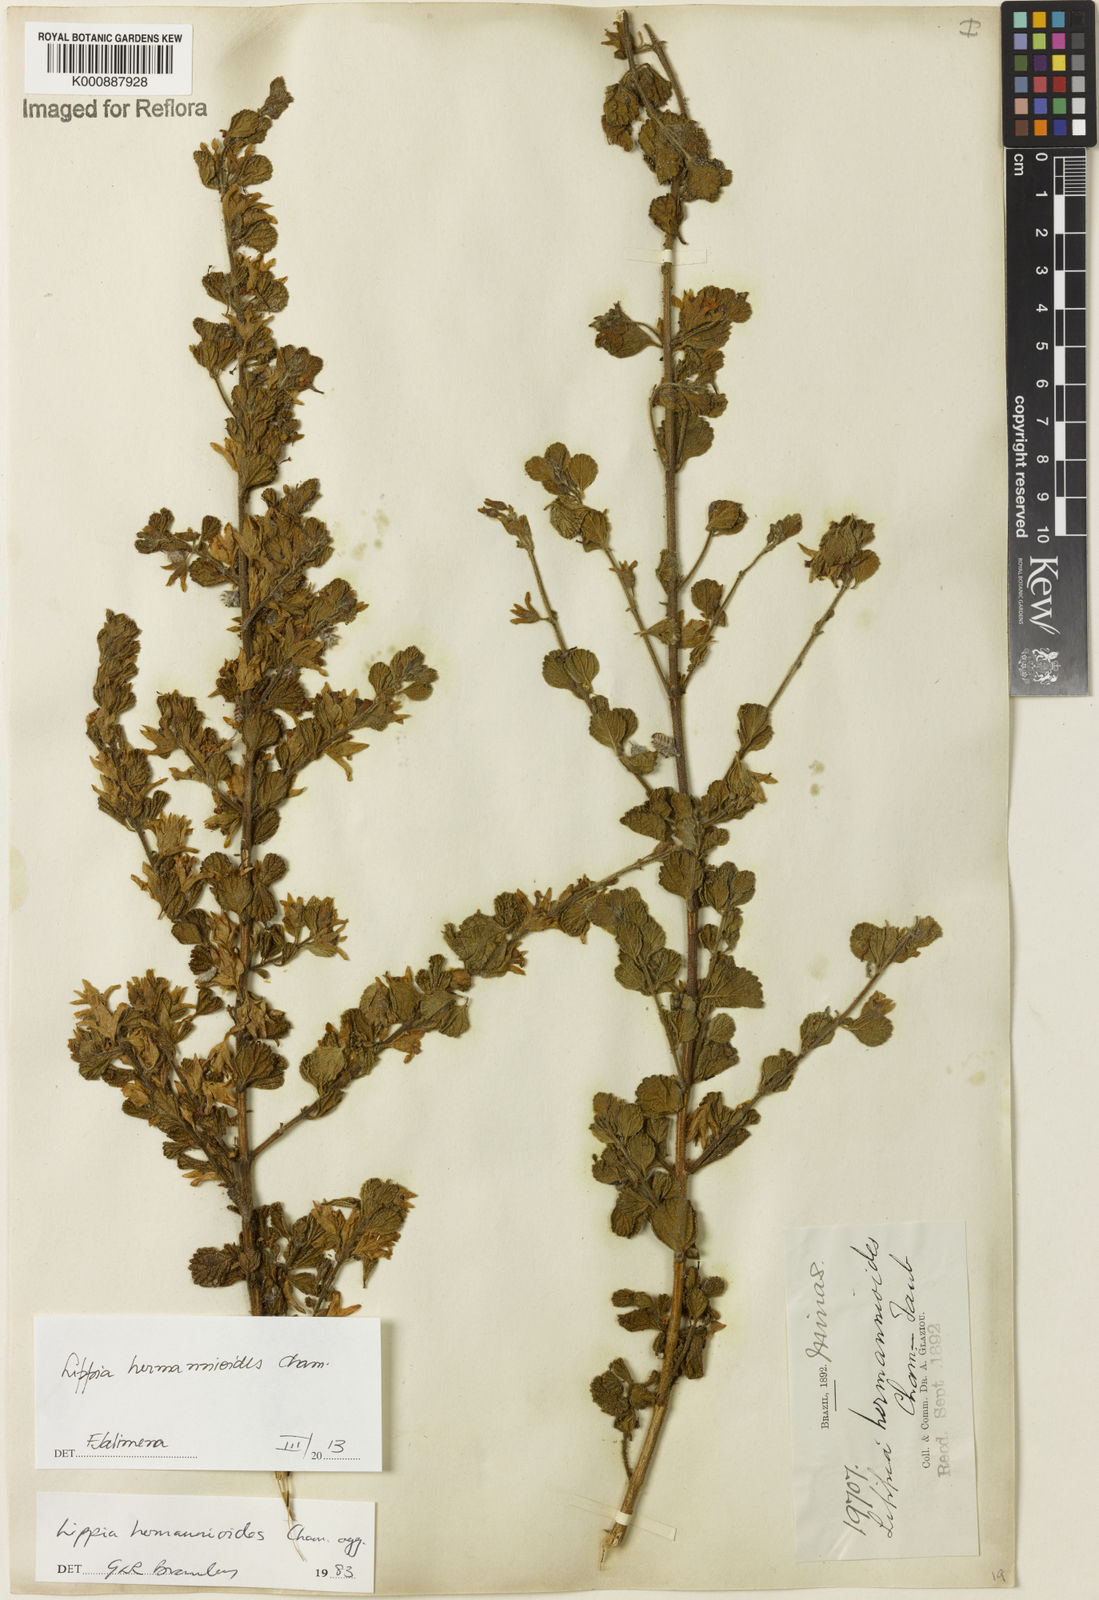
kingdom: Plantae
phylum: Tracheophyta
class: Magnoliopsida
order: Lamiales
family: Verbenaceae
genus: Lippia
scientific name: Lippia hermannioides
